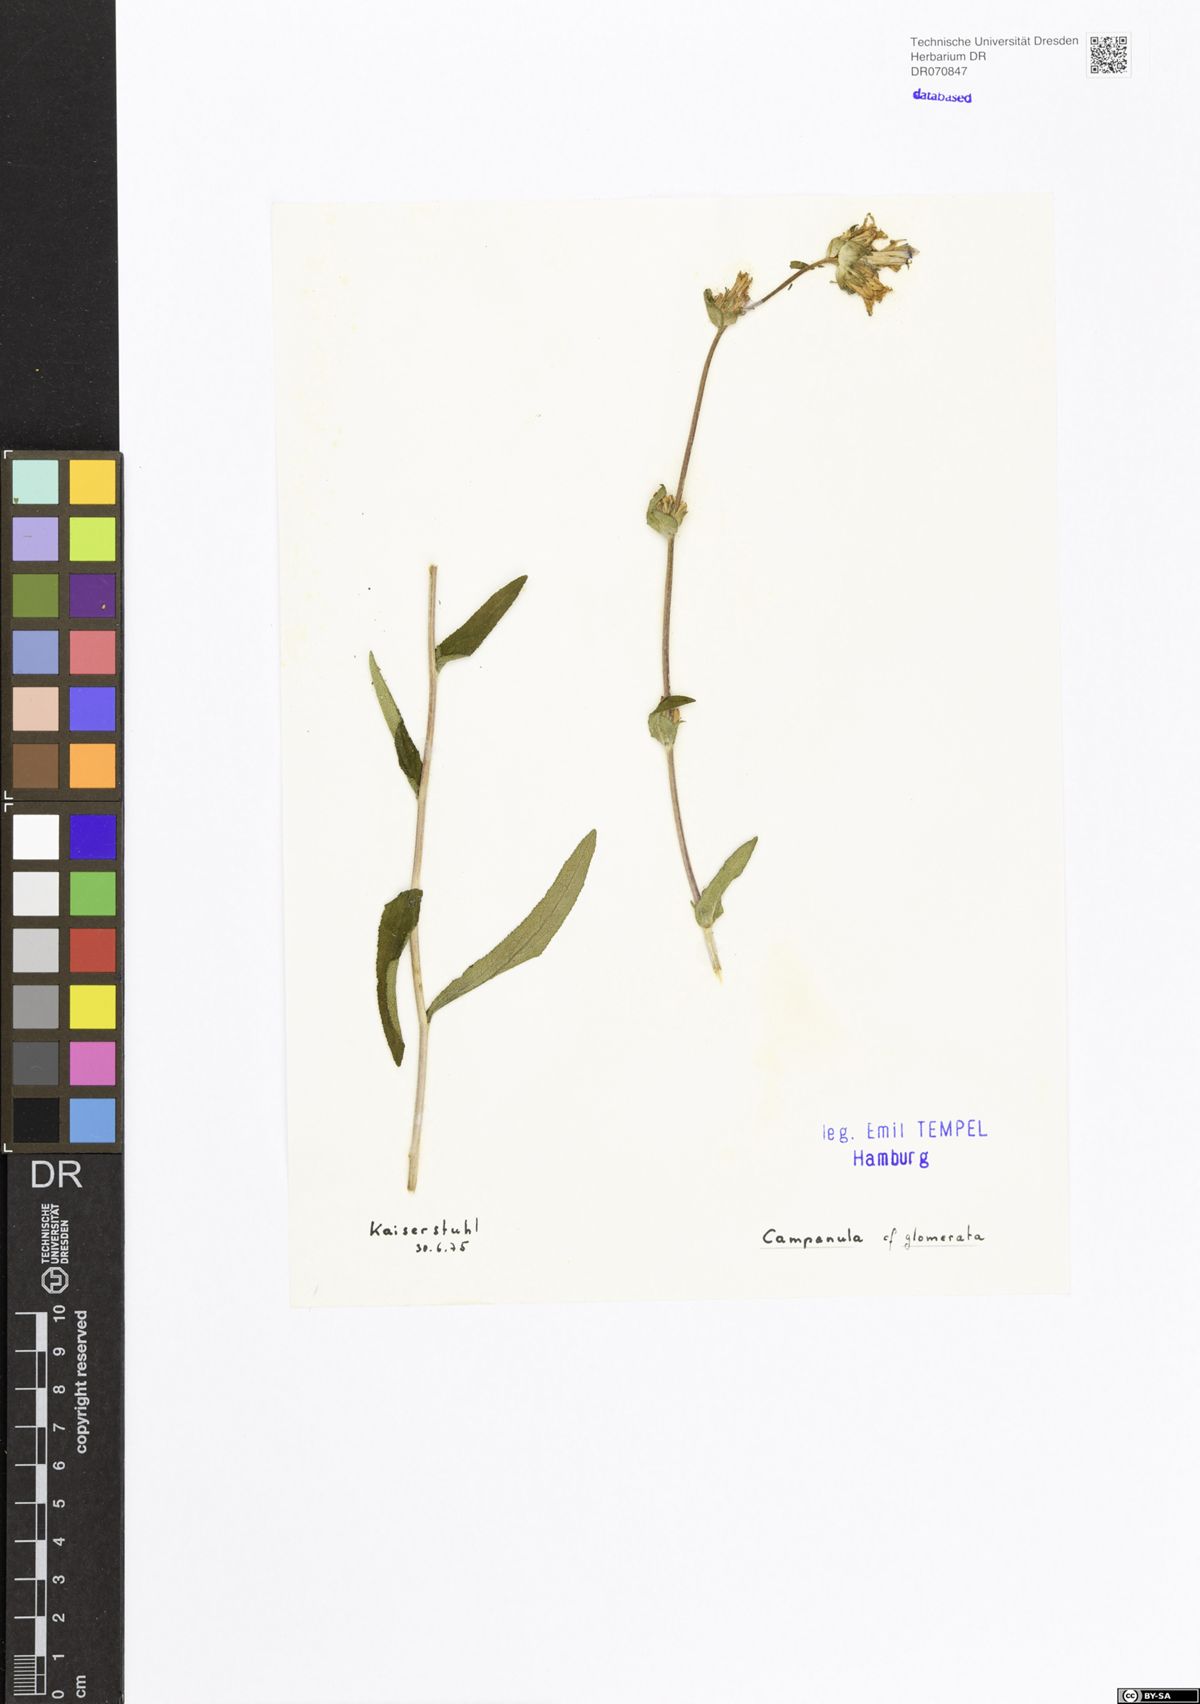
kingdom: Plantae
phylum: Tracheophyta
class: Magnoliopsida
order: Asterales
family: Campanulaceae
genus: Campanula
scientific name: Campanula glomerata
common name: Clustered bellflower
